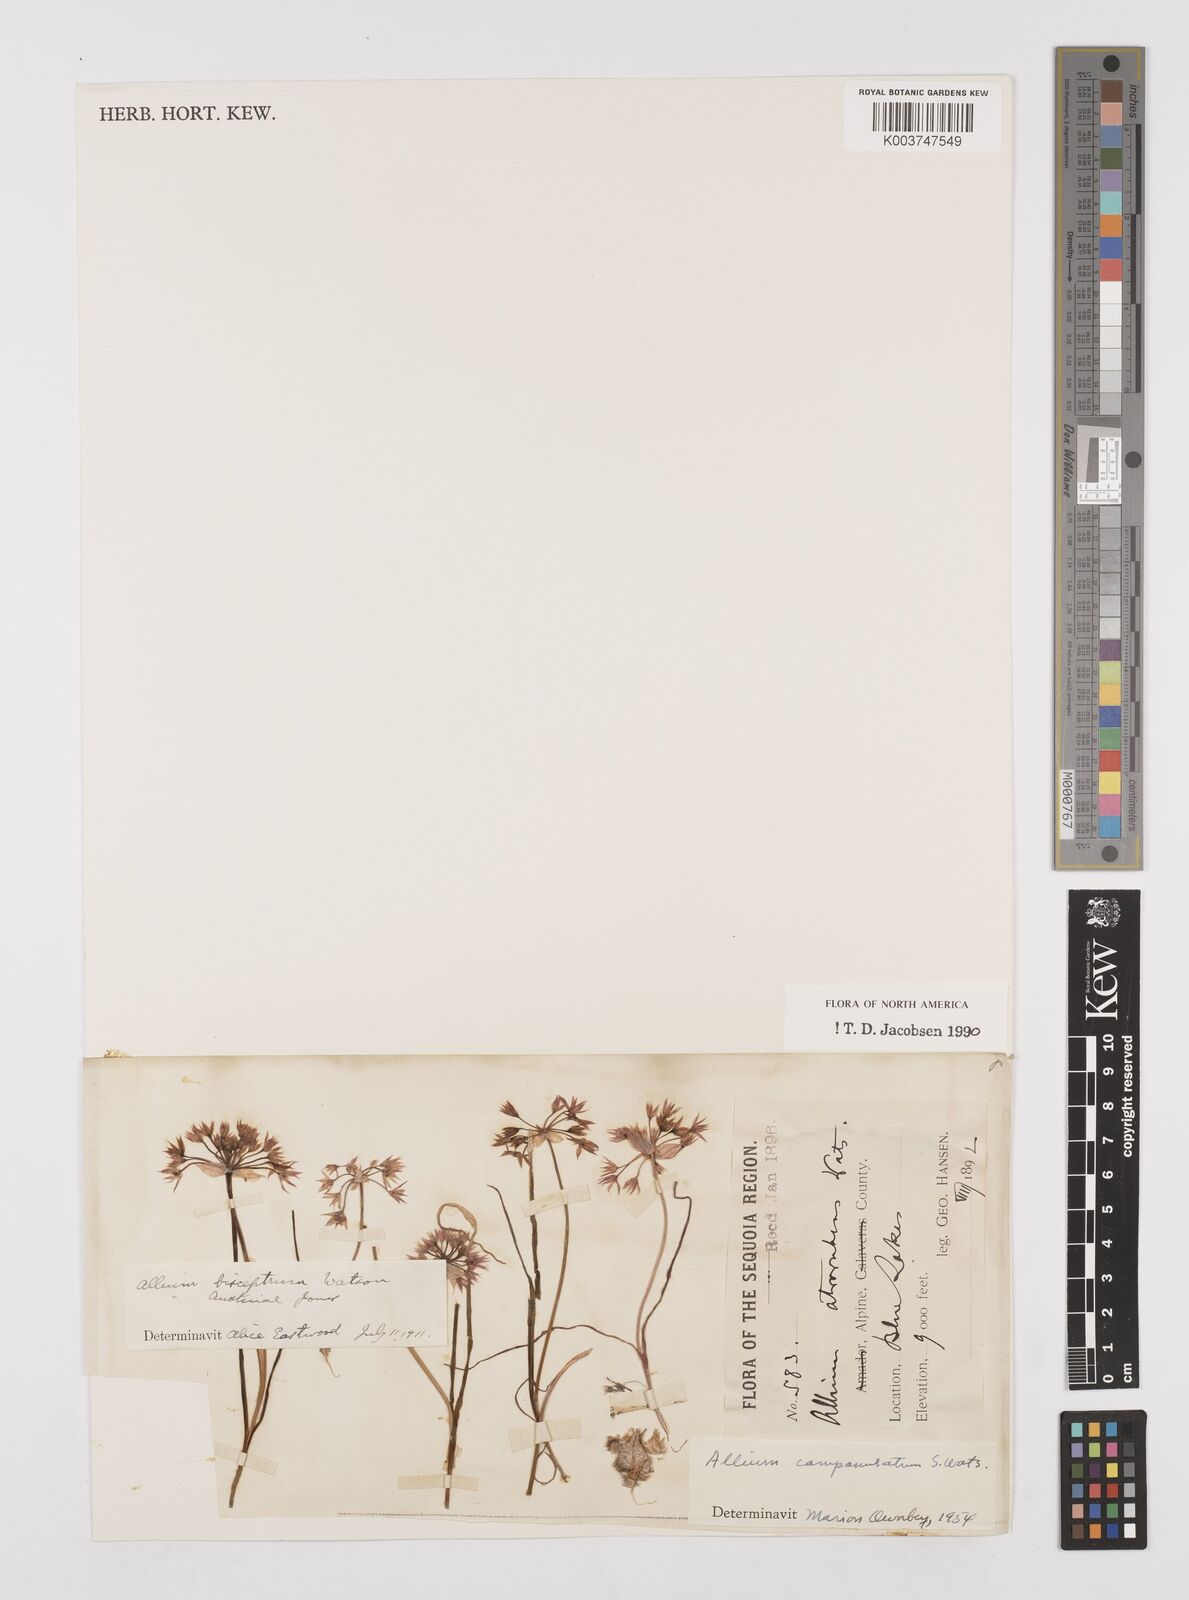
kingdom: Plantae
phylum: Tracheophyta
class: Liliopsida
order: Asparagales
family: Amaryllidaceae
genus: Allium
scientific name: Allium campanulatum
